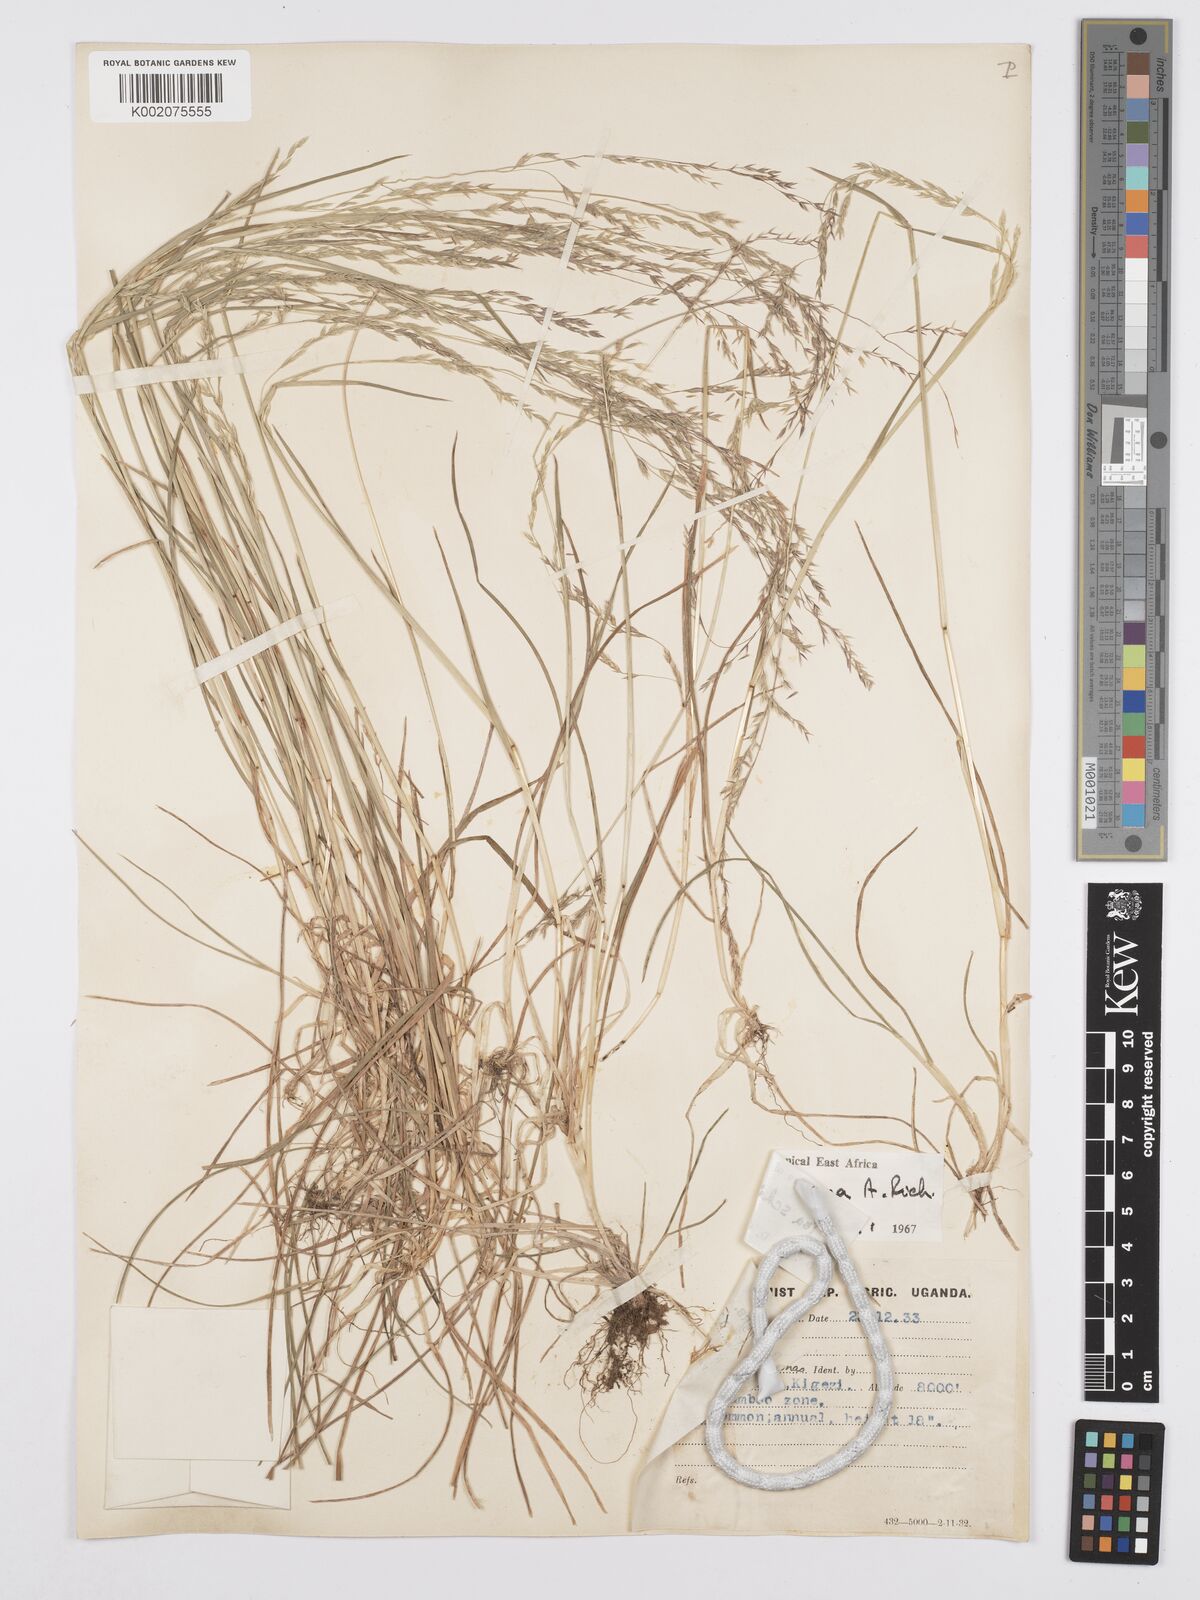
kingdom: Plantae
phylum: Tracheophyta
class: Liliopsida
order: Poales
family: Poaceae
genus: Poa
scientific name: Poa schimperiana
